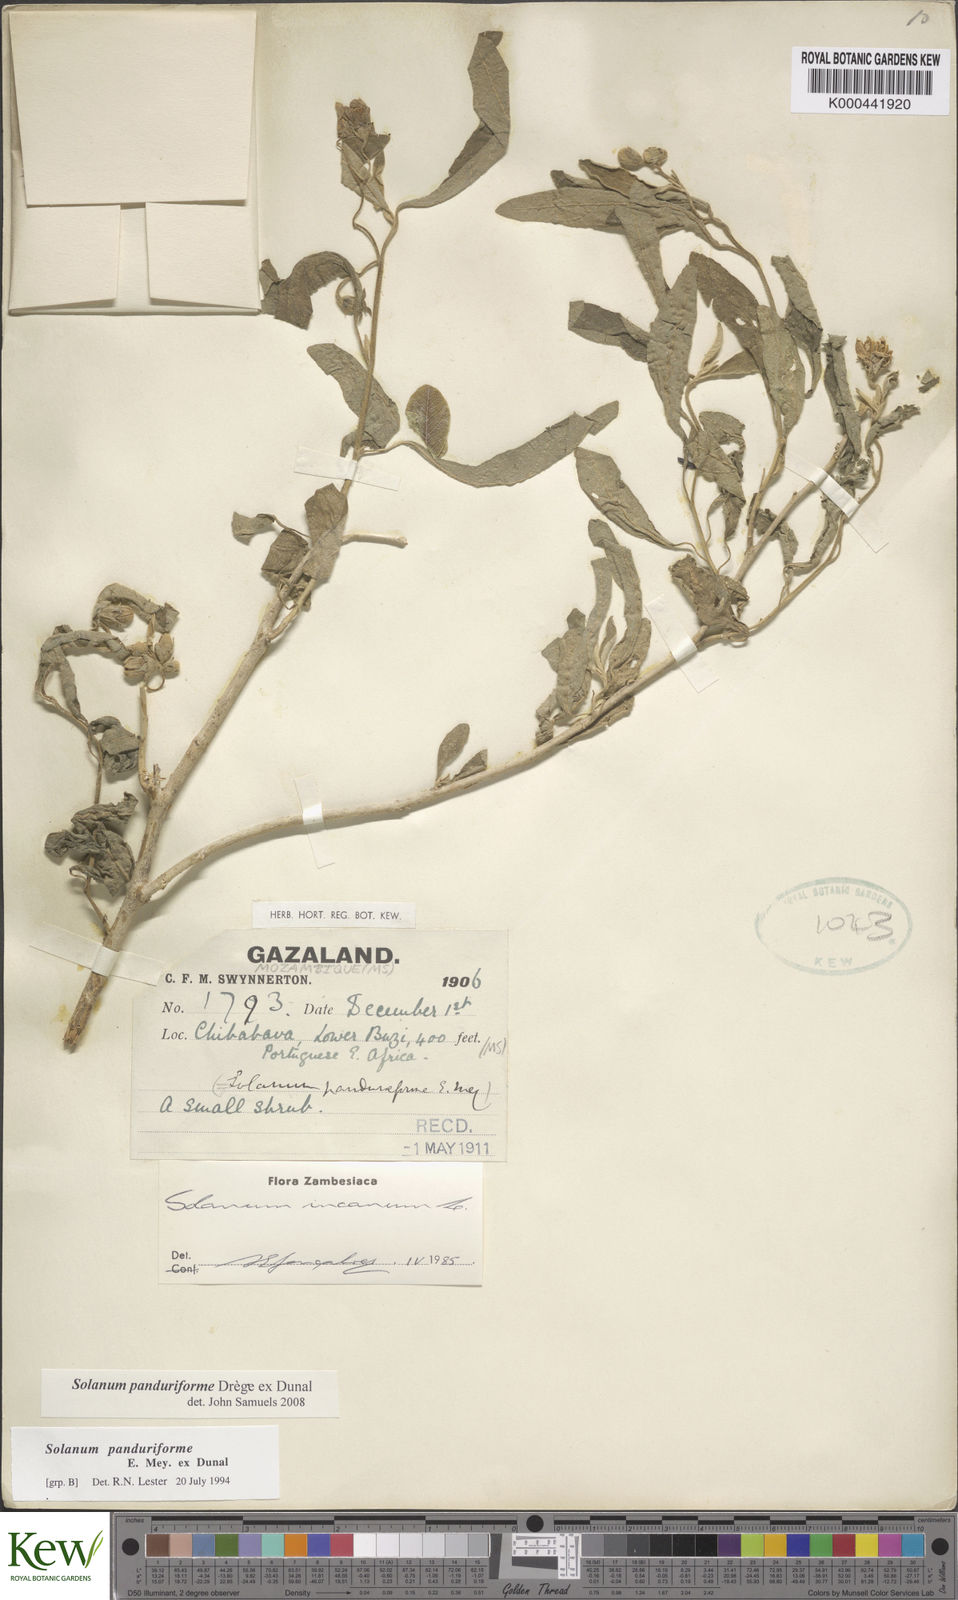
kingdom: Plantae
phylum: Tracheophyta
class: Magnoliopsida
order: Solanales
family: Solanaceae
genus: Solanum
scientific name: Solanum campylacanthum
